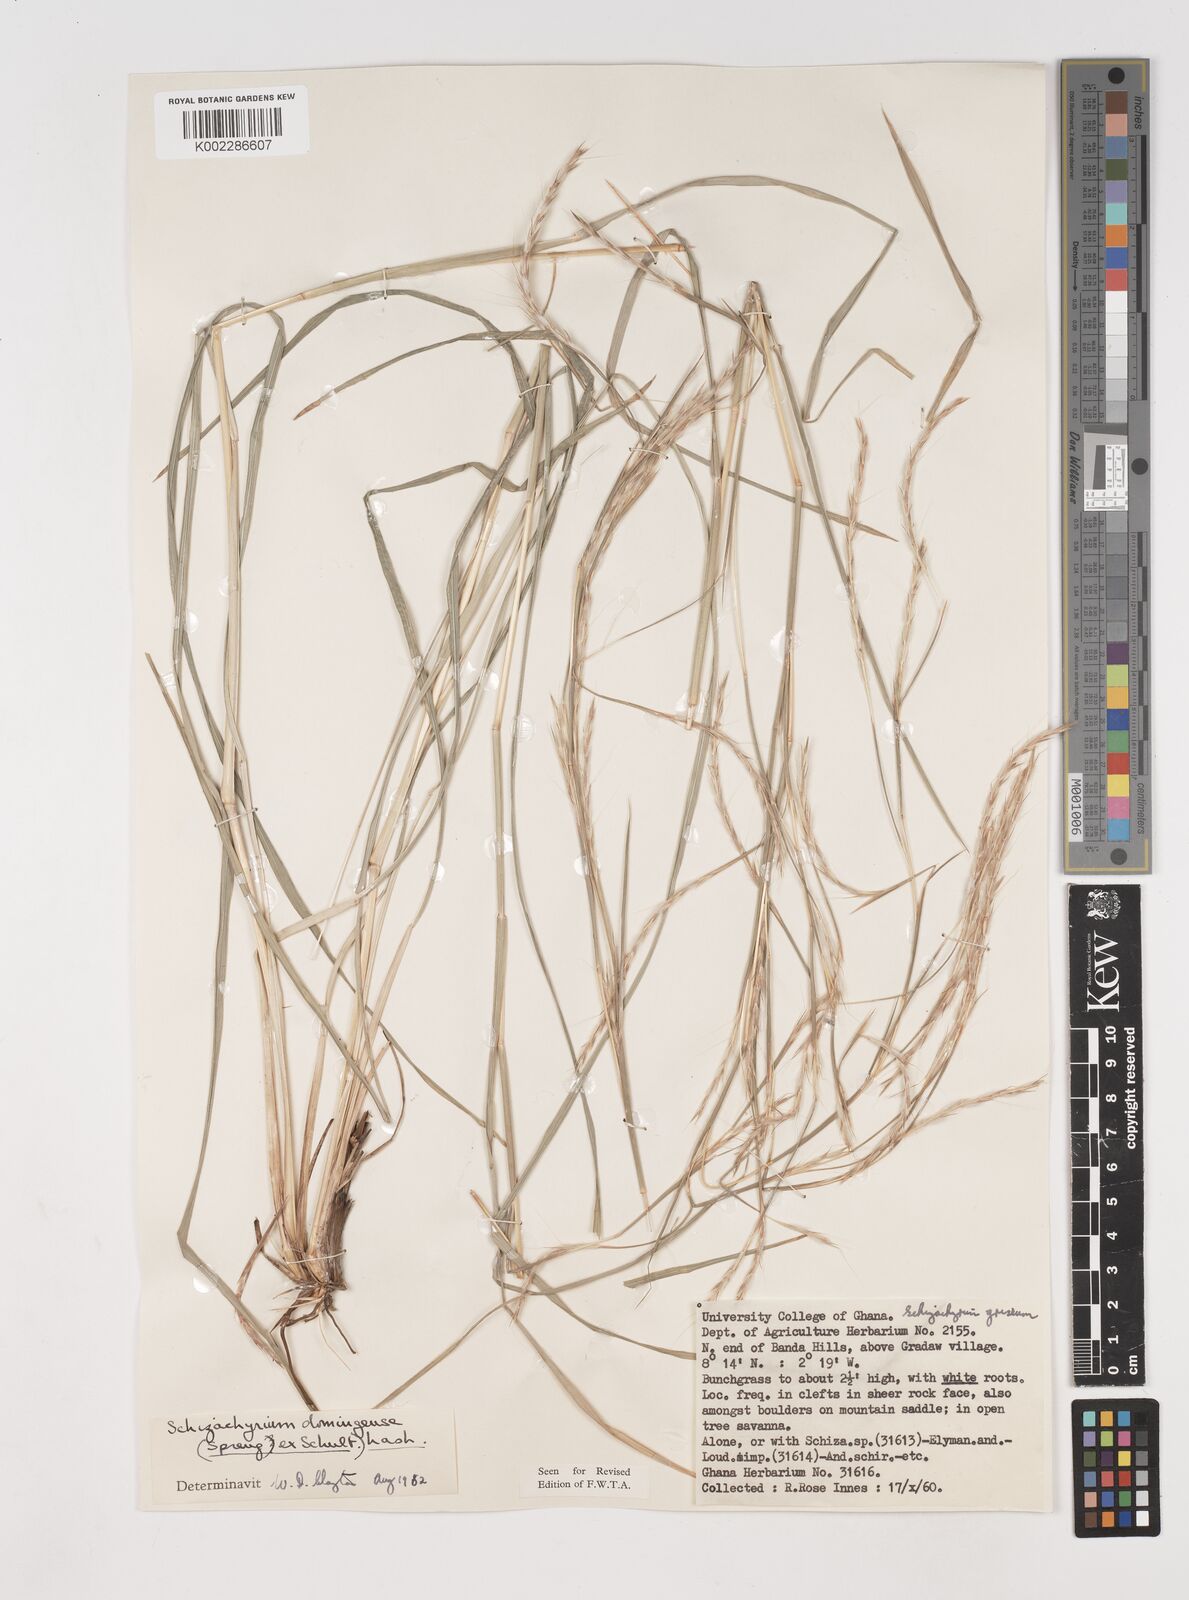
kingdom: Plantae
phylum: Tracheophyta
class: Liliopsida
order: Poales
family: Poaceae
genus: Schizachyrium
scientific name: Schizachyrium sanguineum
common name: Crimson bluestem
